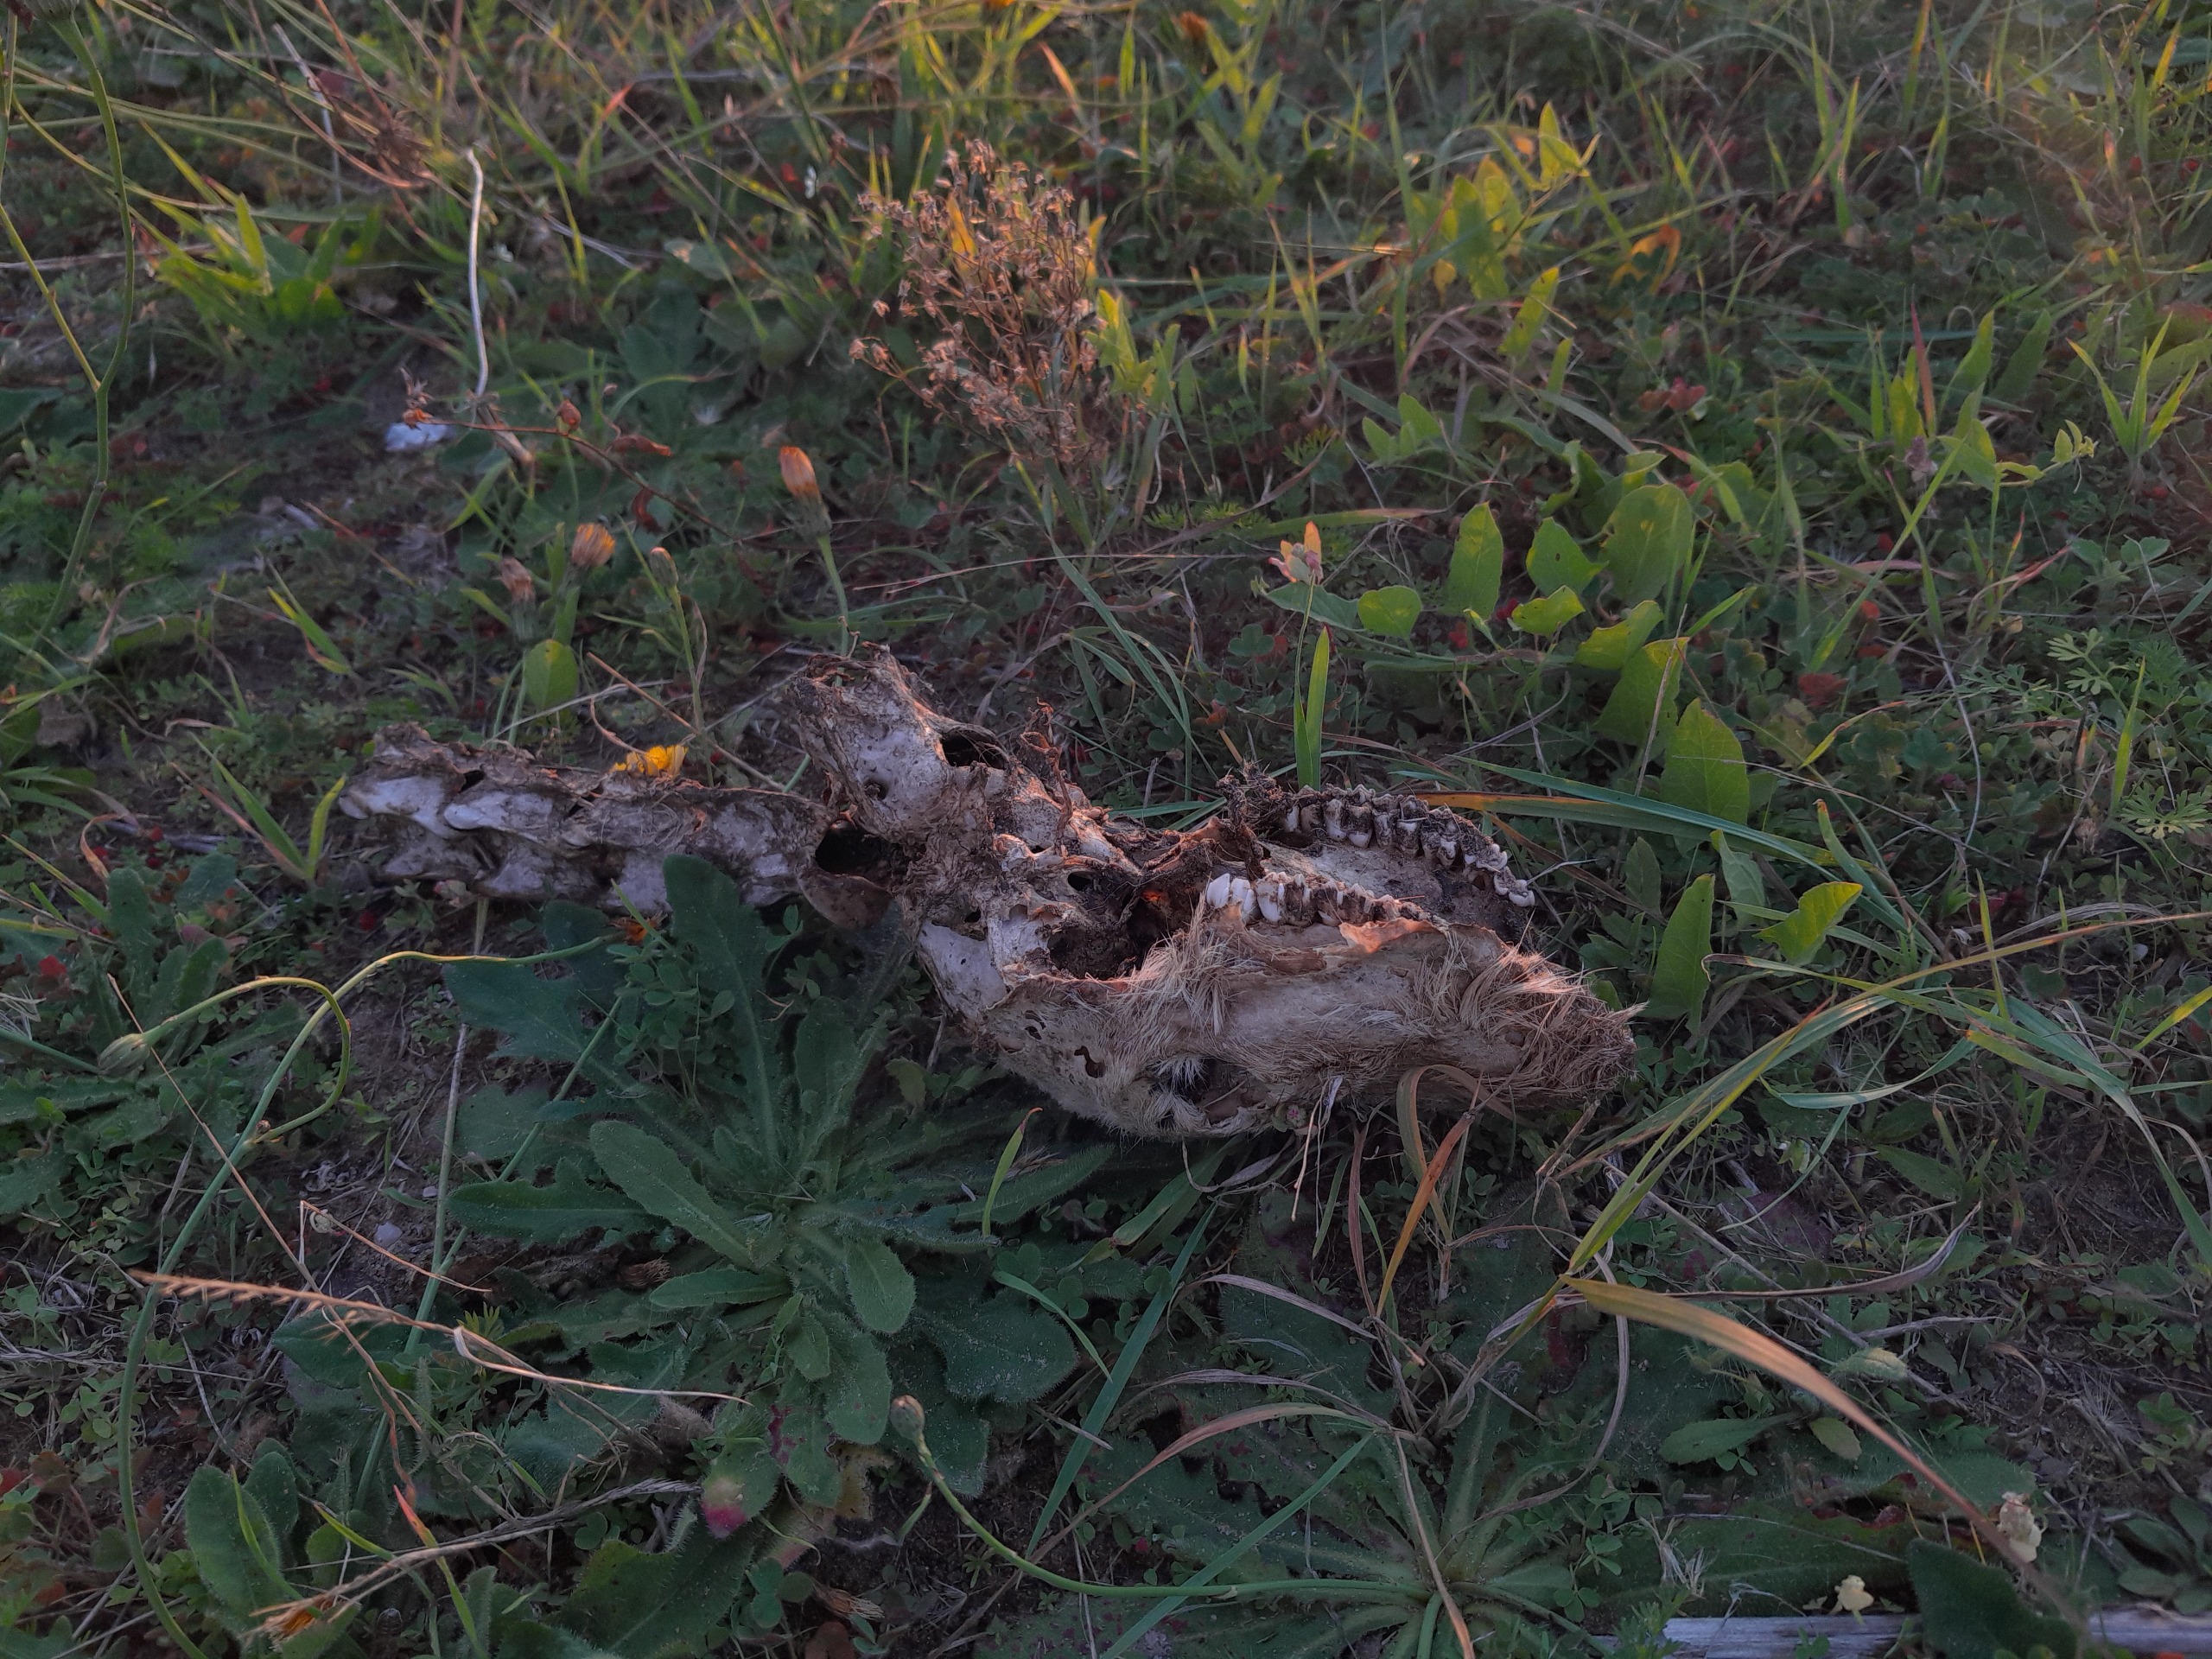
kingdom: Animalia
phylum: Chordata
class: Mammalia
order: Artiodactyla
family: Cervidae
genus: Capreolus
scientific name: Capreolus capreolus
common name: Rådyr
